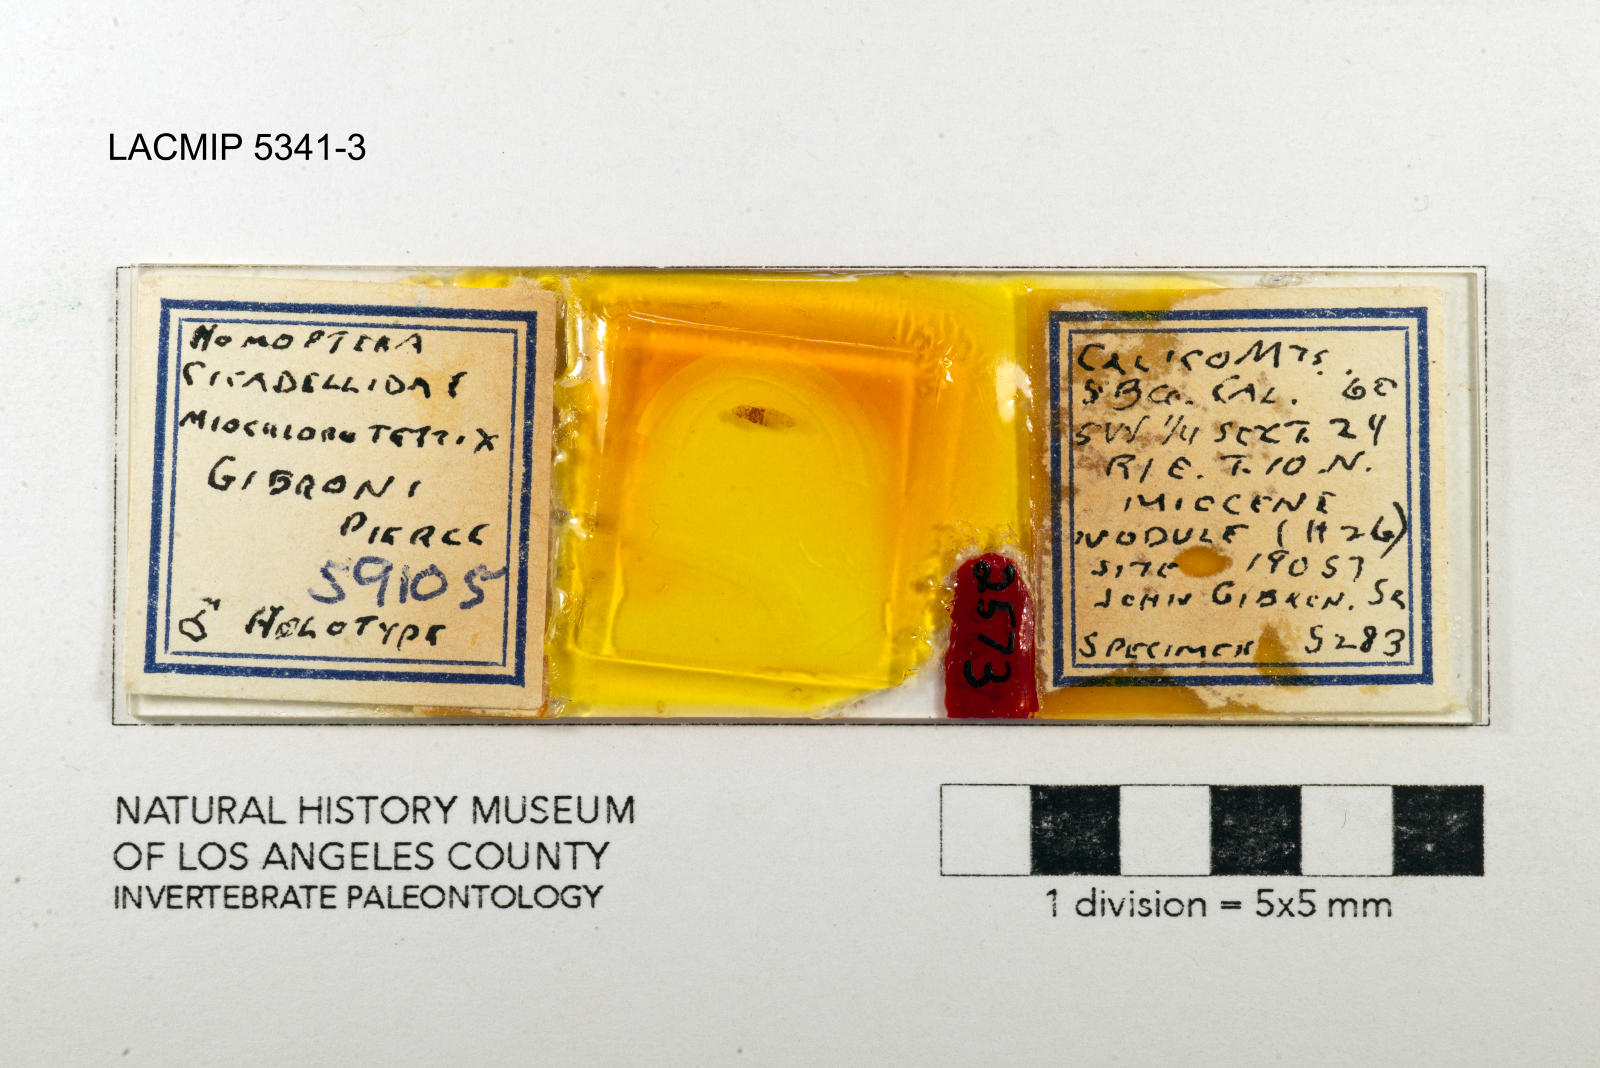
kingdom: Animalia
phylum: Arthropoda
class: Insecta
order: Hemiptera
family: Cicadellidae
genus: Miochlorotettix
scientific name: Miochlorotettix gibroni
